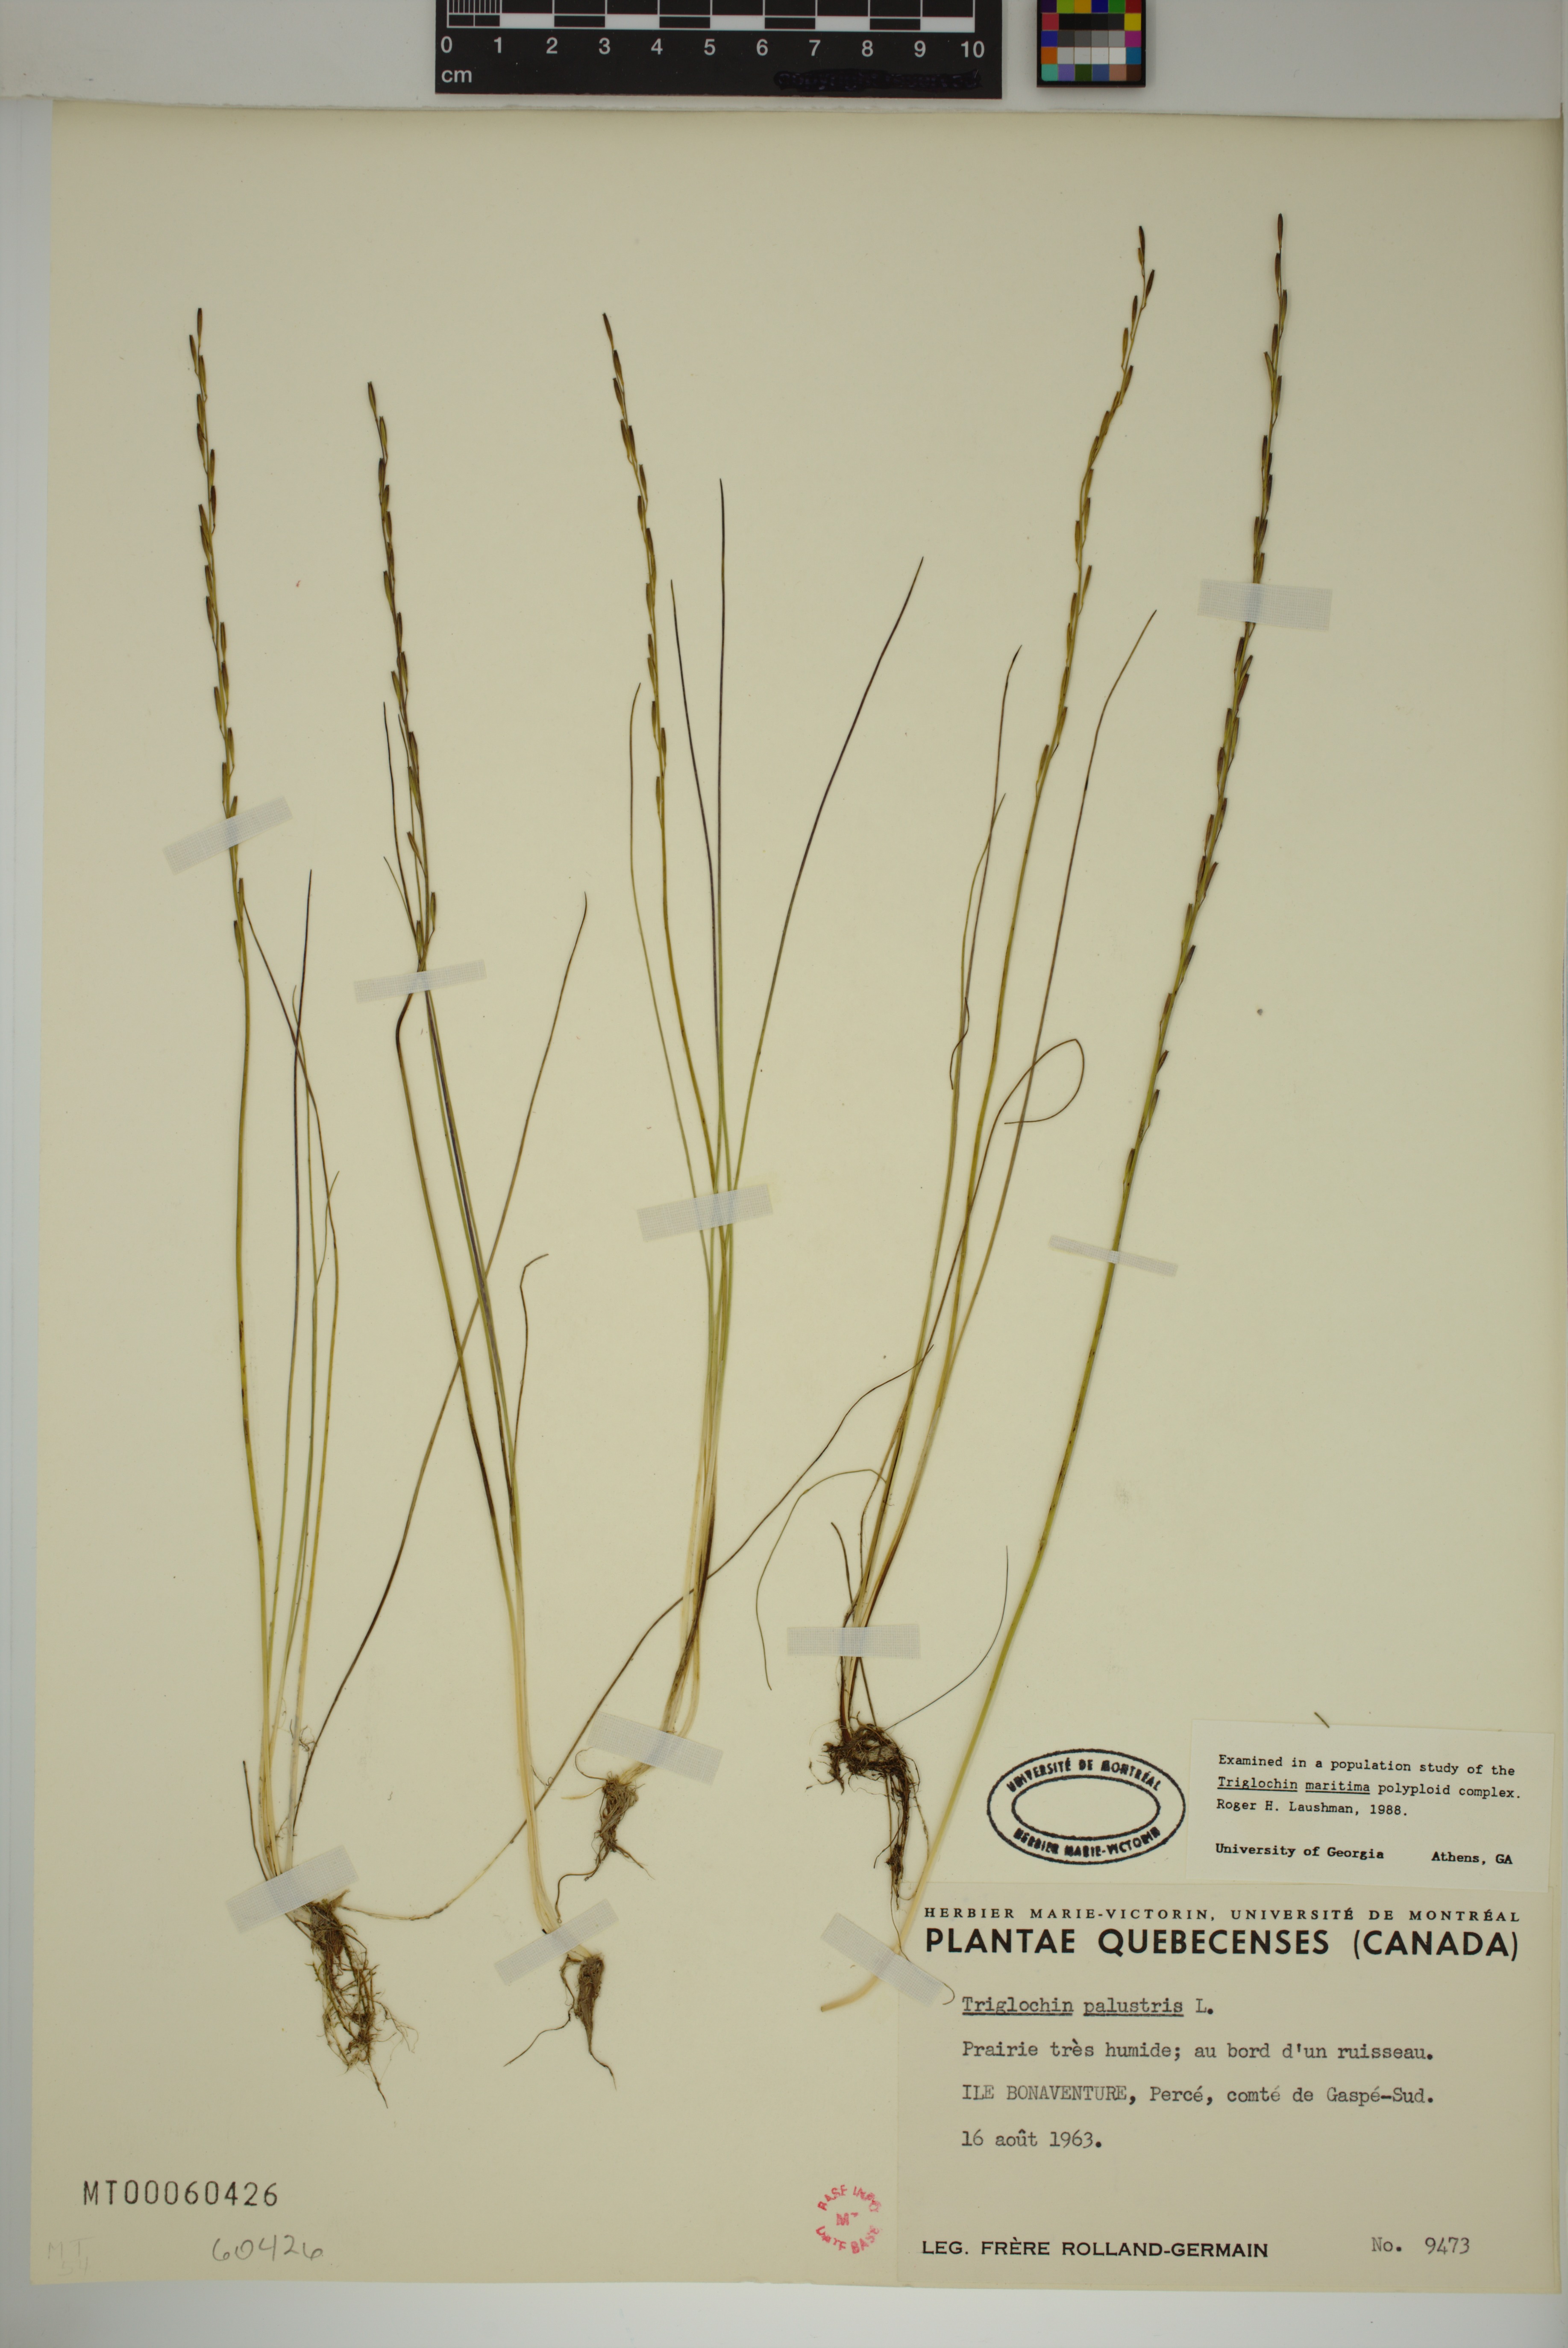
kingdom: Plantae
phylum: Tracheophyta
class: Liliopsida
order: Alismatales
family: Juncaginaceae
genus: Triglochin
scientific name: Triglochin palustris
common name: Marsh arrowgrass
